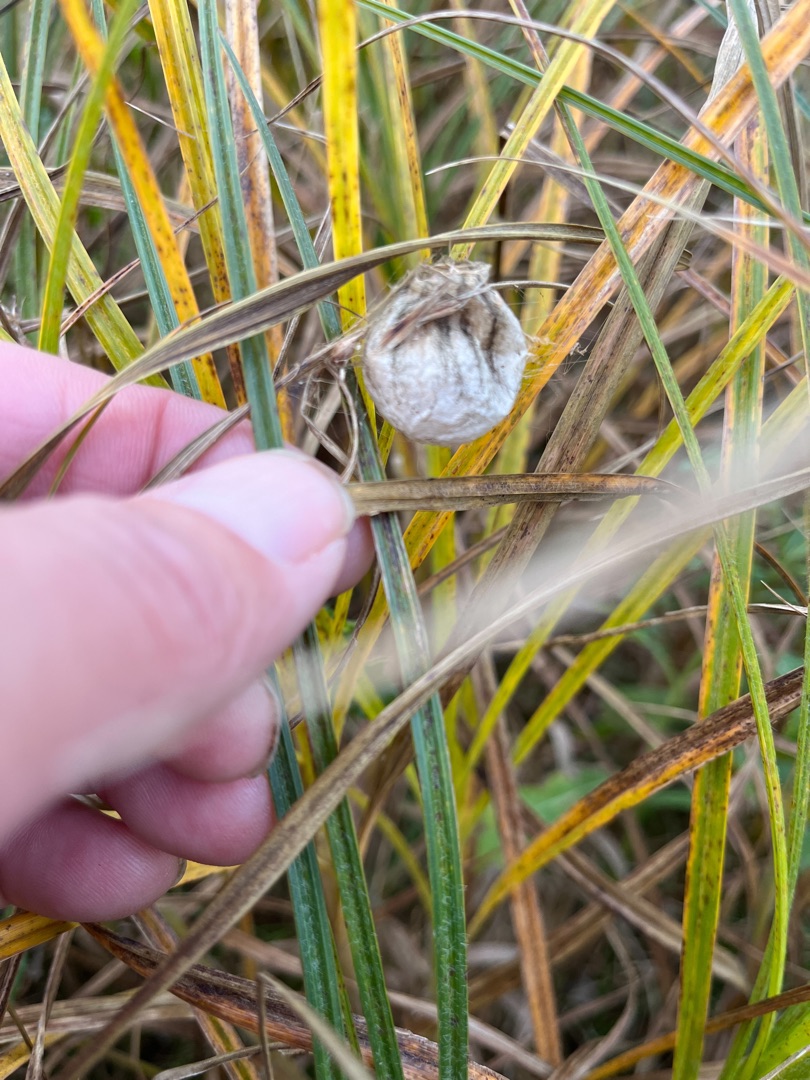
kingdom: Animalia
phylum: Arthropoda
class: Arachnida
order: Araneae
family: Araneidae
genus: Argiope
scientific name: Argiope bruennichi
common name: Hvepseedderkop
